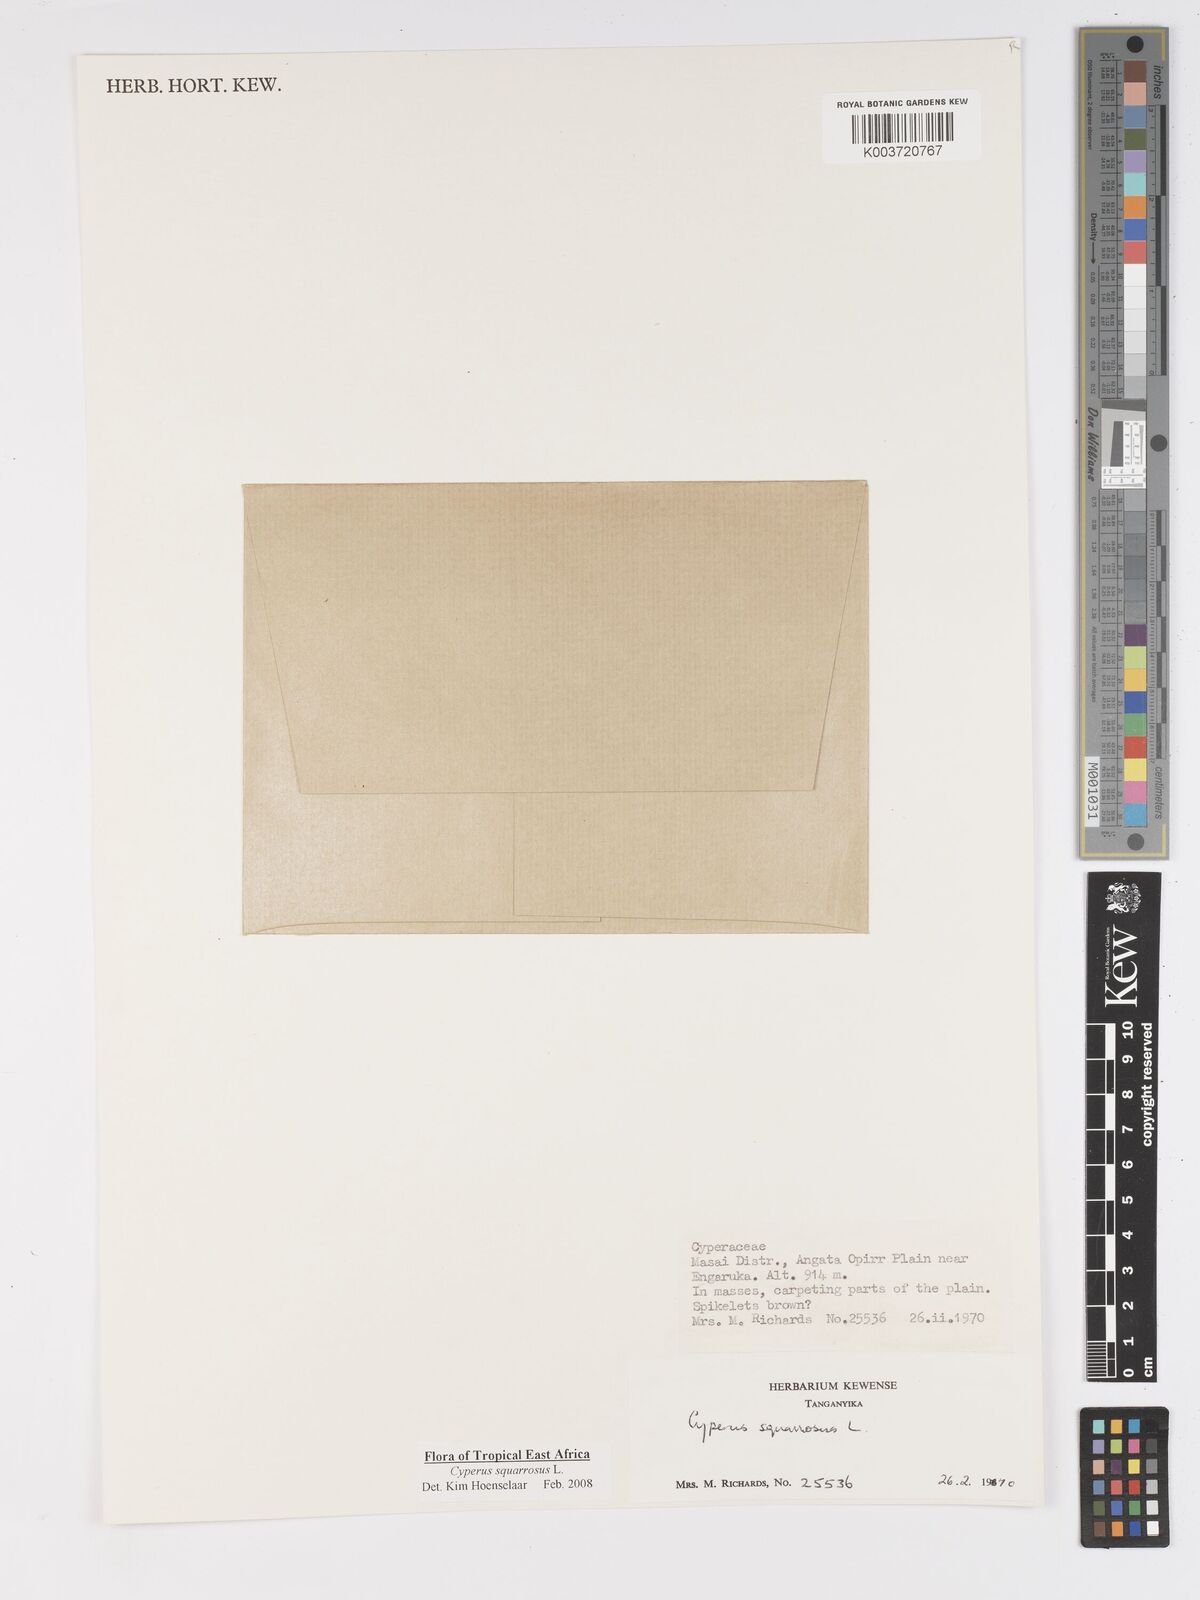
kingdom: Plantae
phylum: Tracheophyta
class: Liliopsida
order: Poales
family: Cyperaceae
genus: Cyperus
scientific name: Cyperus squarrosus
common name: Awned cyperus
